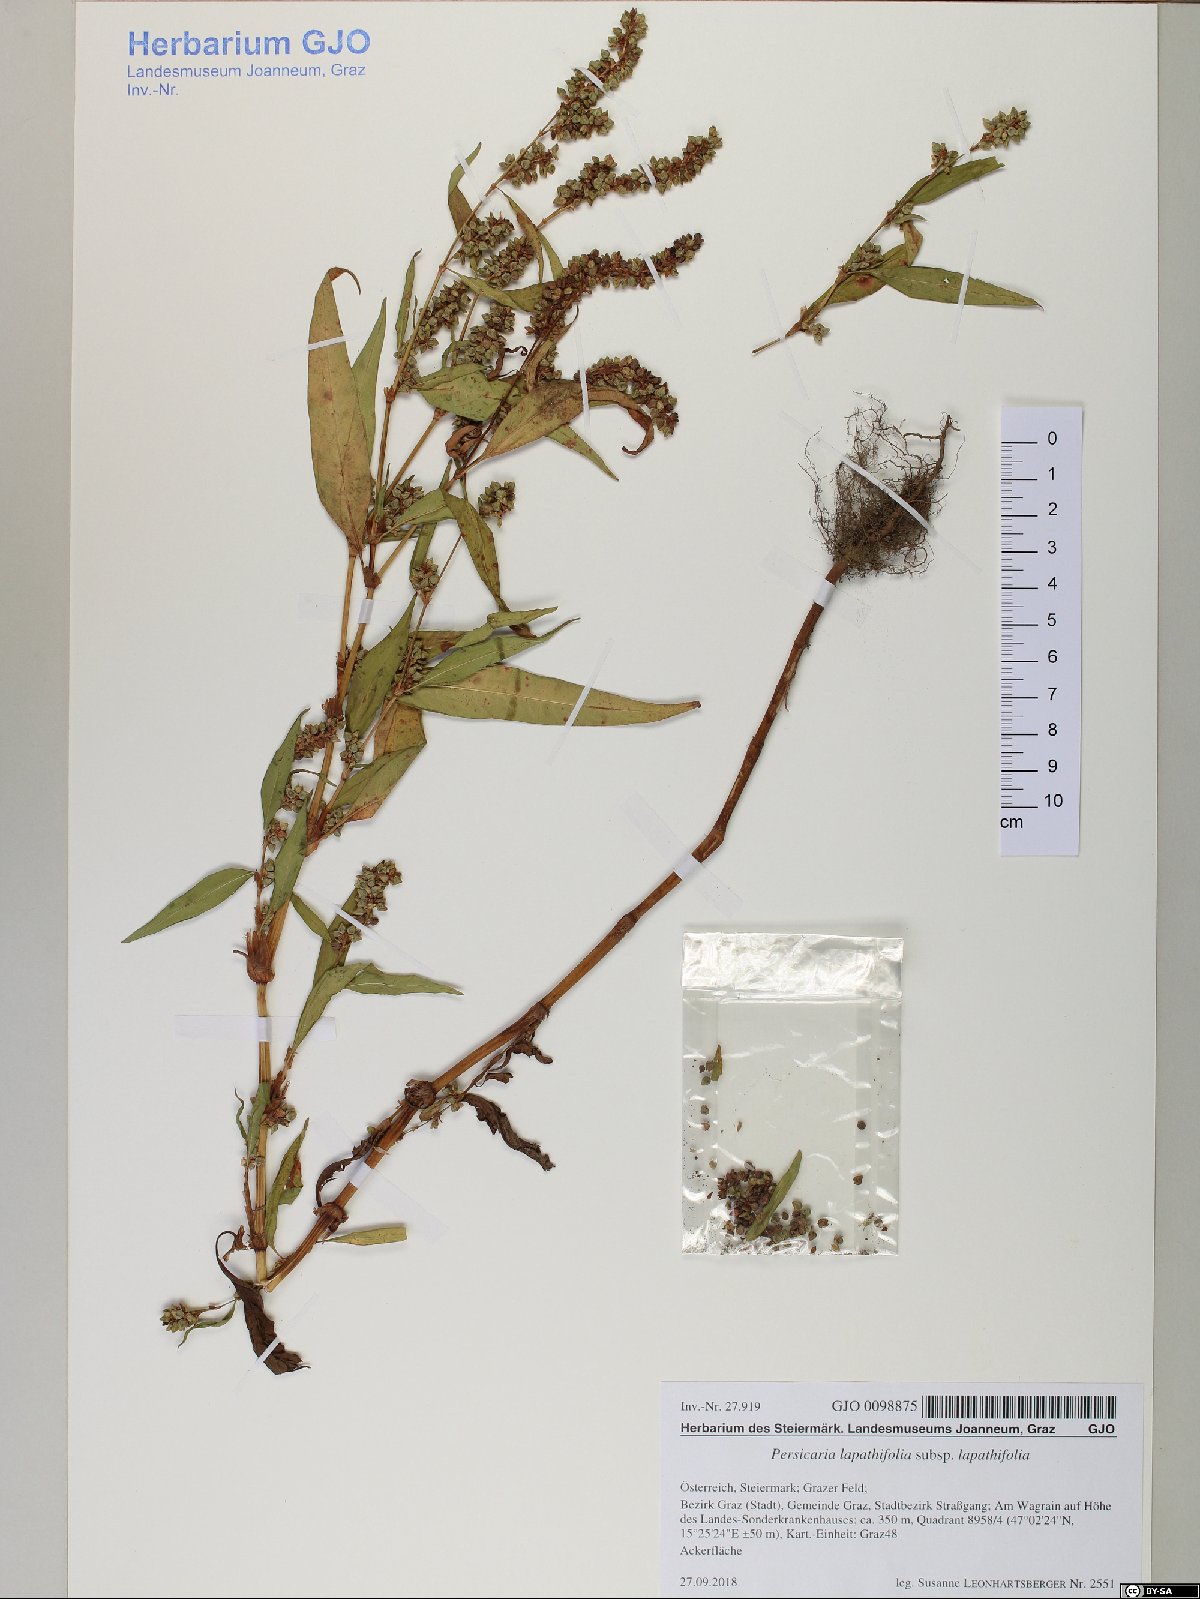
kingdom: Plantae
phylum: Tracheophyta
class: Magnoliopsida
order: Caryophyllales
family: Polygonaceae
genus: Persicaria
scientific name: Persicaria lapathifolia
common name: Curlytop knotweed
